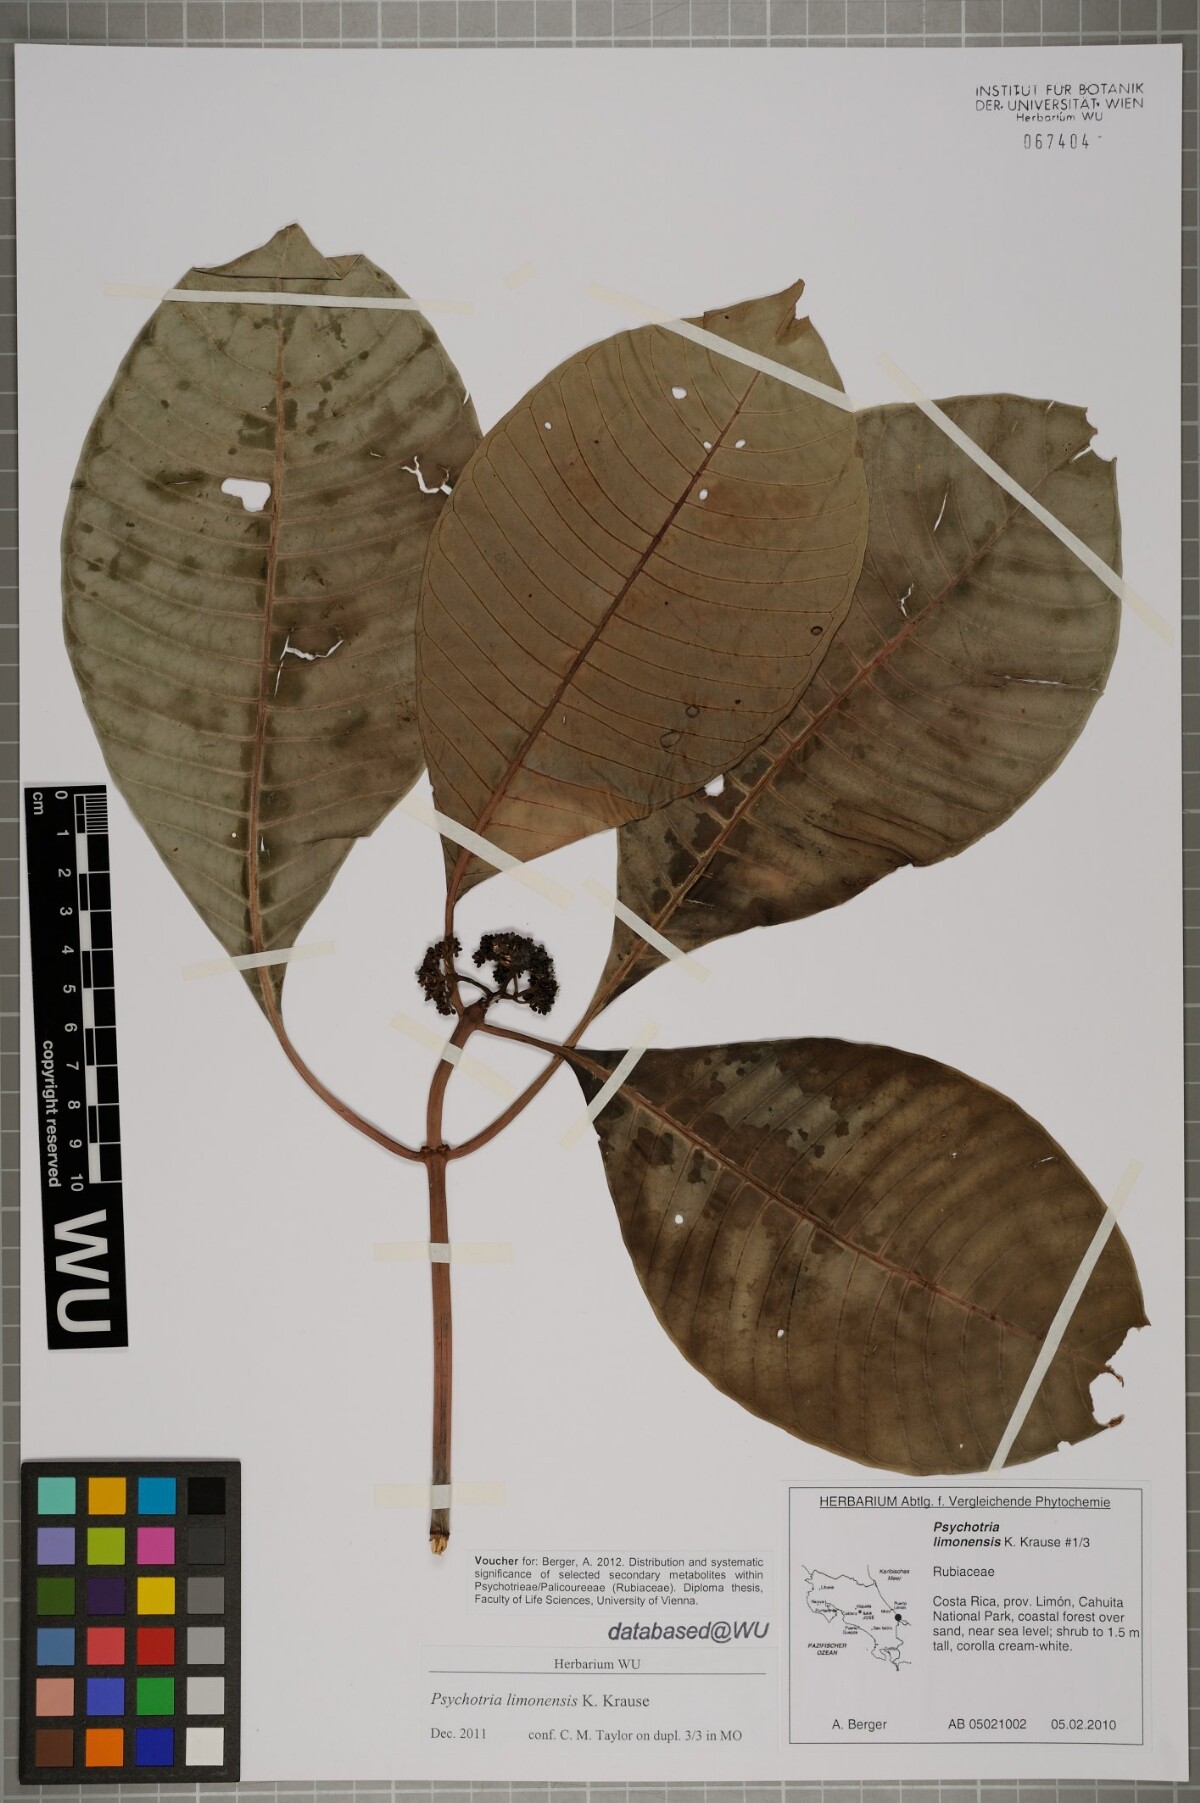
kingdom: Plantae
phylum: Tracheophyta
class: Magnoliopsida
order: Gentianales
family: Rubiaceae
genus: Psychotria
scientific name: Psychotria limonensis
